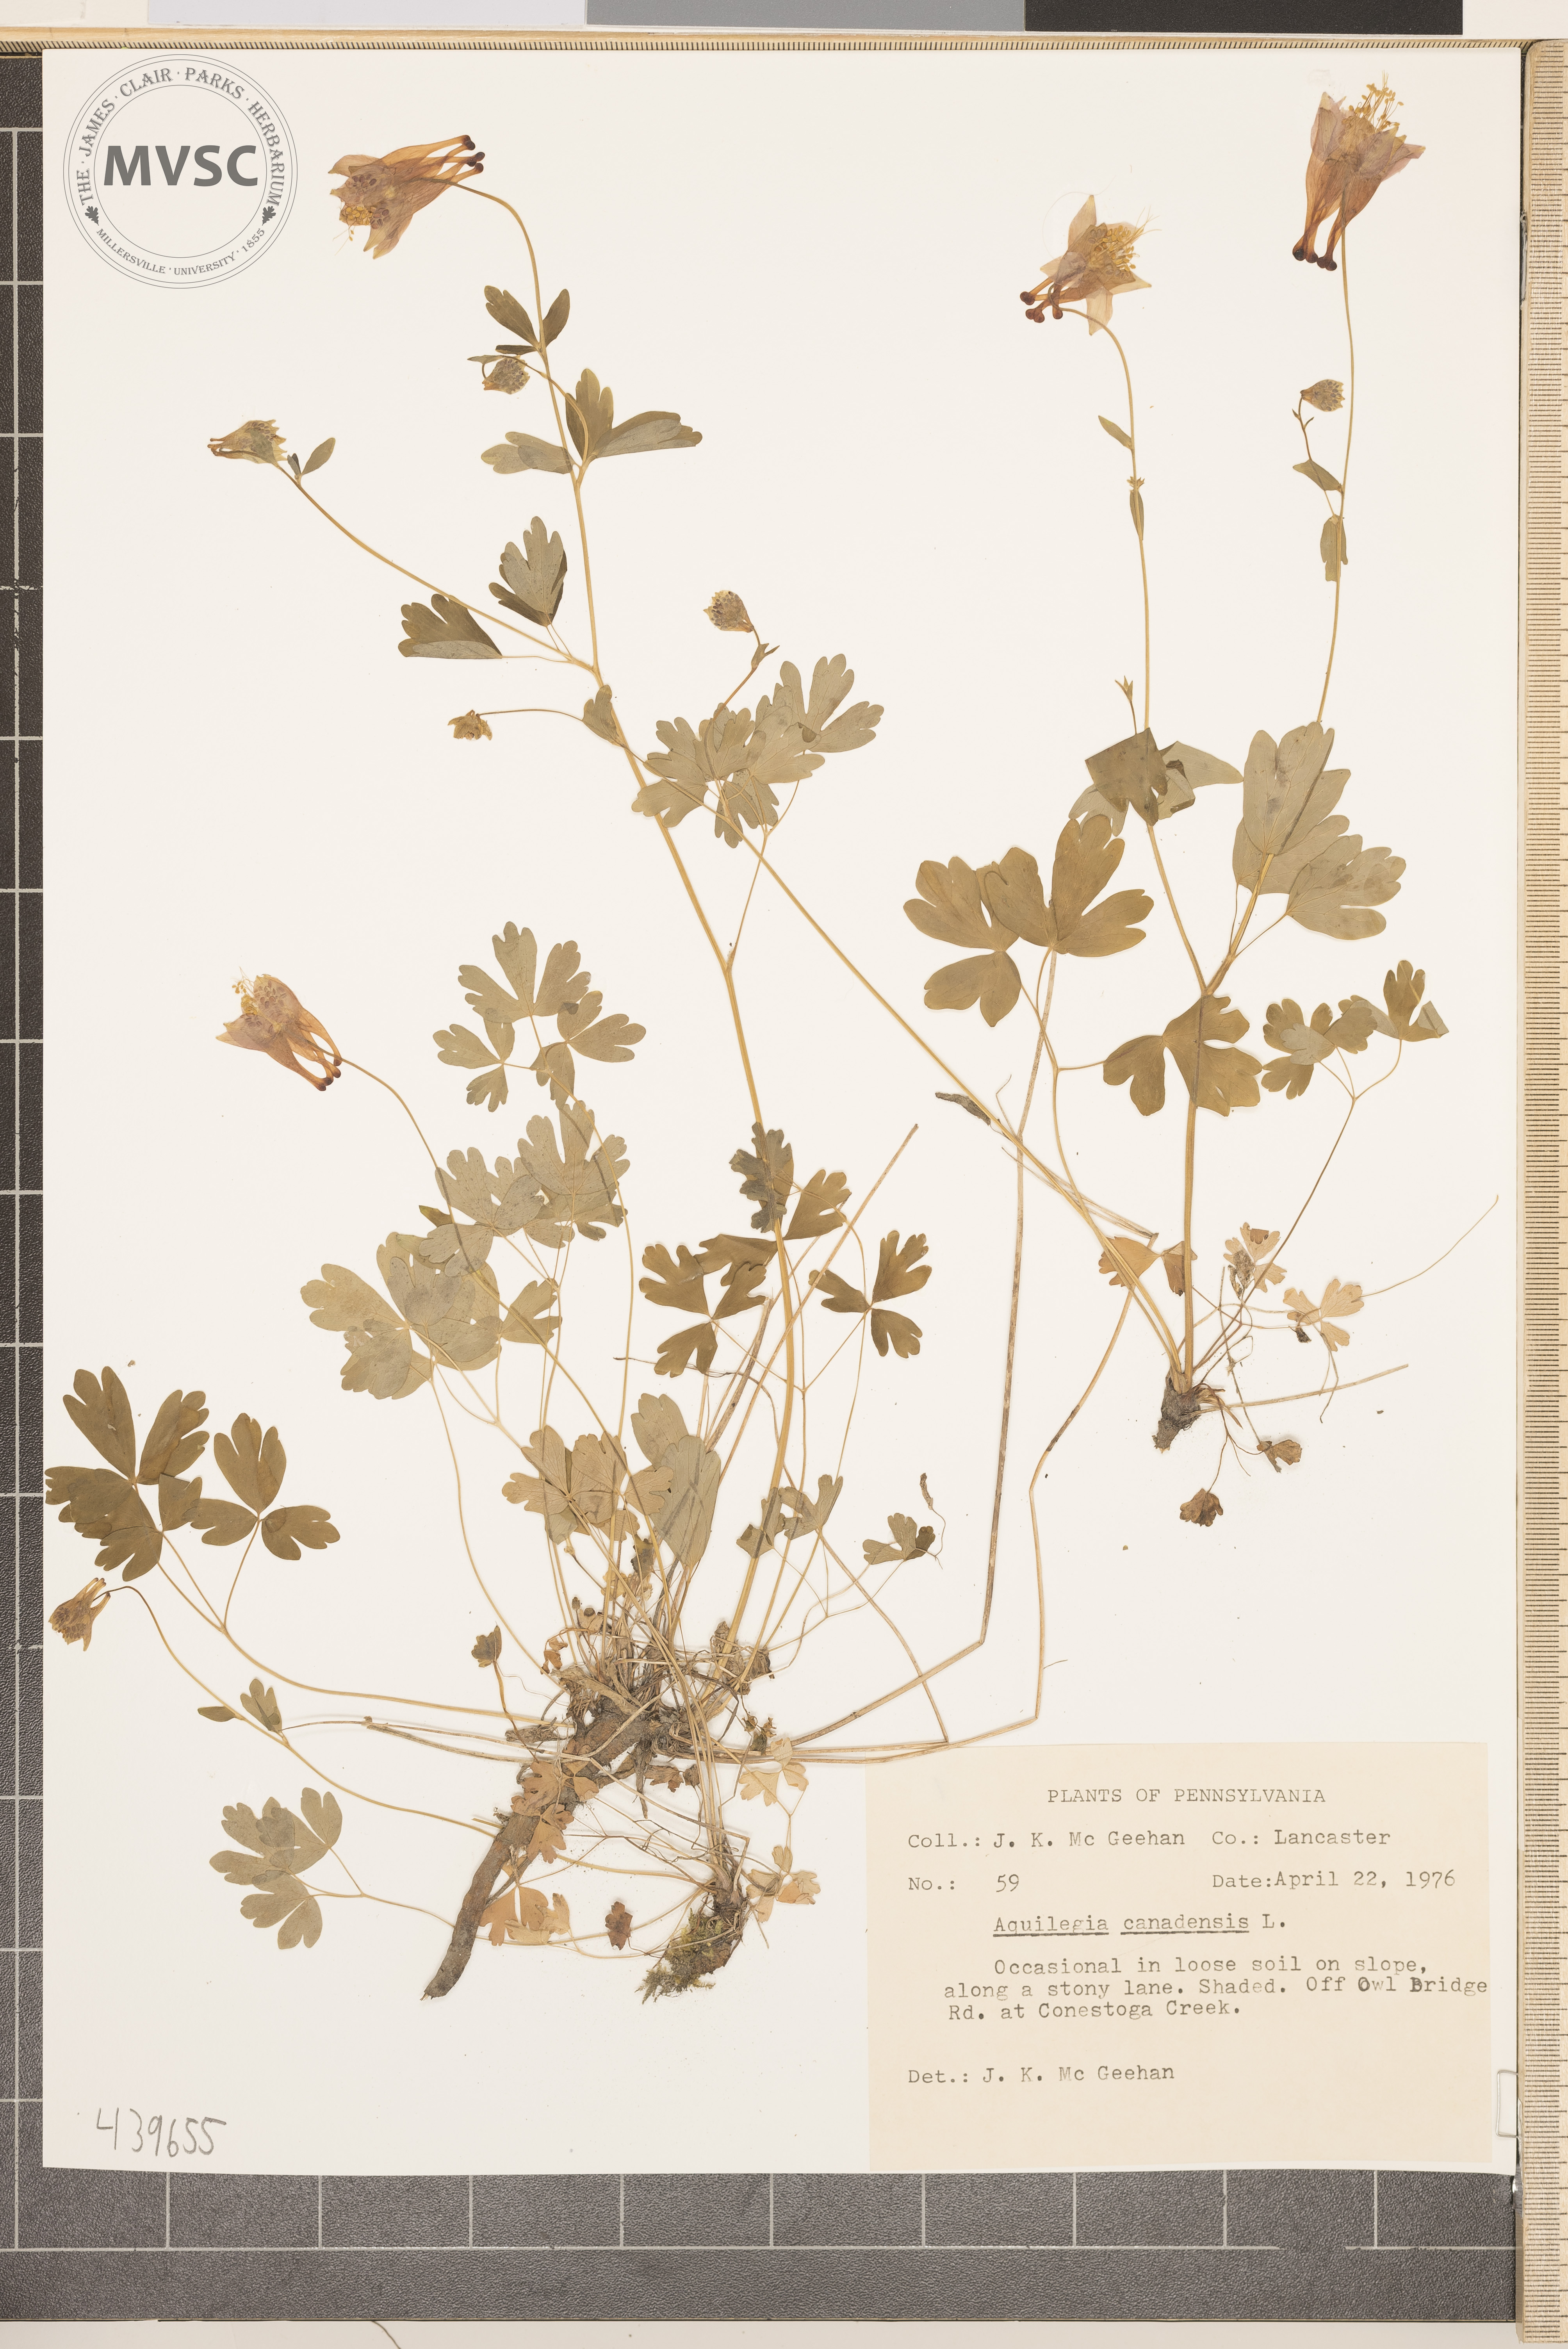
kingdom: Plantae
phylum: Tracheophyta
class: Magnoliopsida
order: Ranunculales
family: Ranunculaceae
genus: Aquilegia
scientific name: Aquilegia canadensis
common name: American columbine
